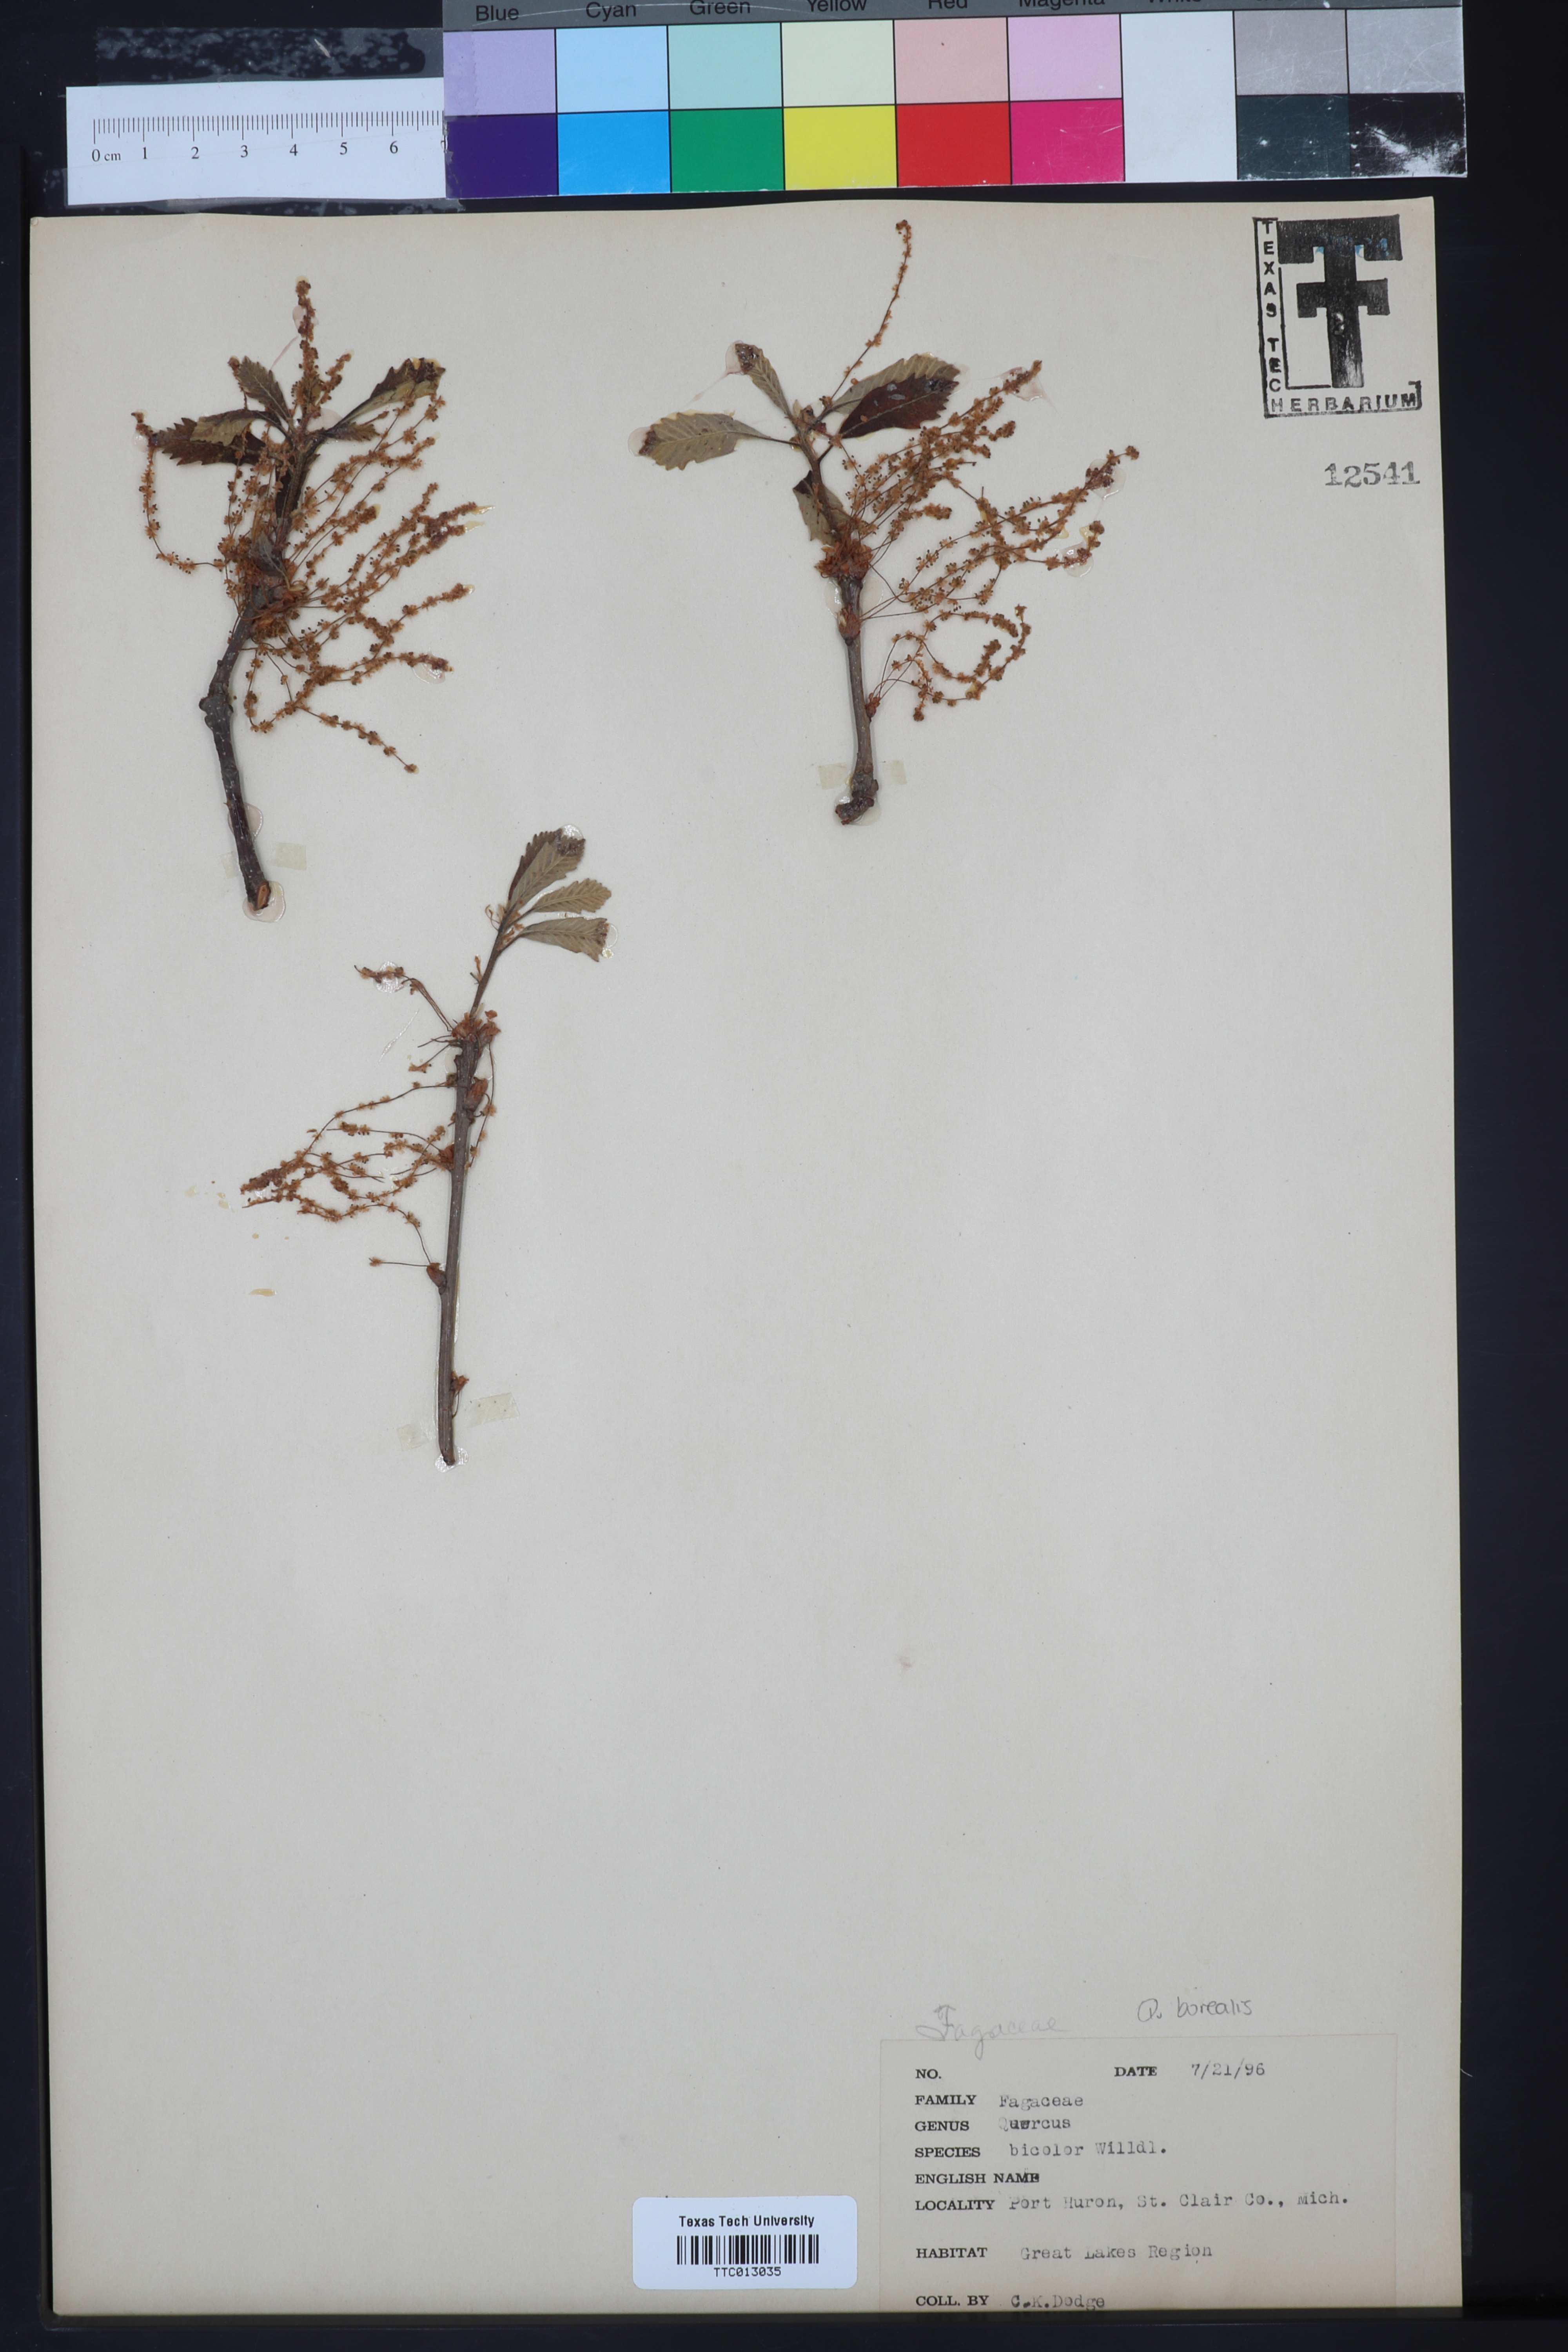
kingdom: Plantae
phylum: Tracheophyta
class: Magnoliopsida
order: Fagales
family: Fagaceae
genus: Quercus
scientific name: Quercus bicolor
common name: Swamp white oak
